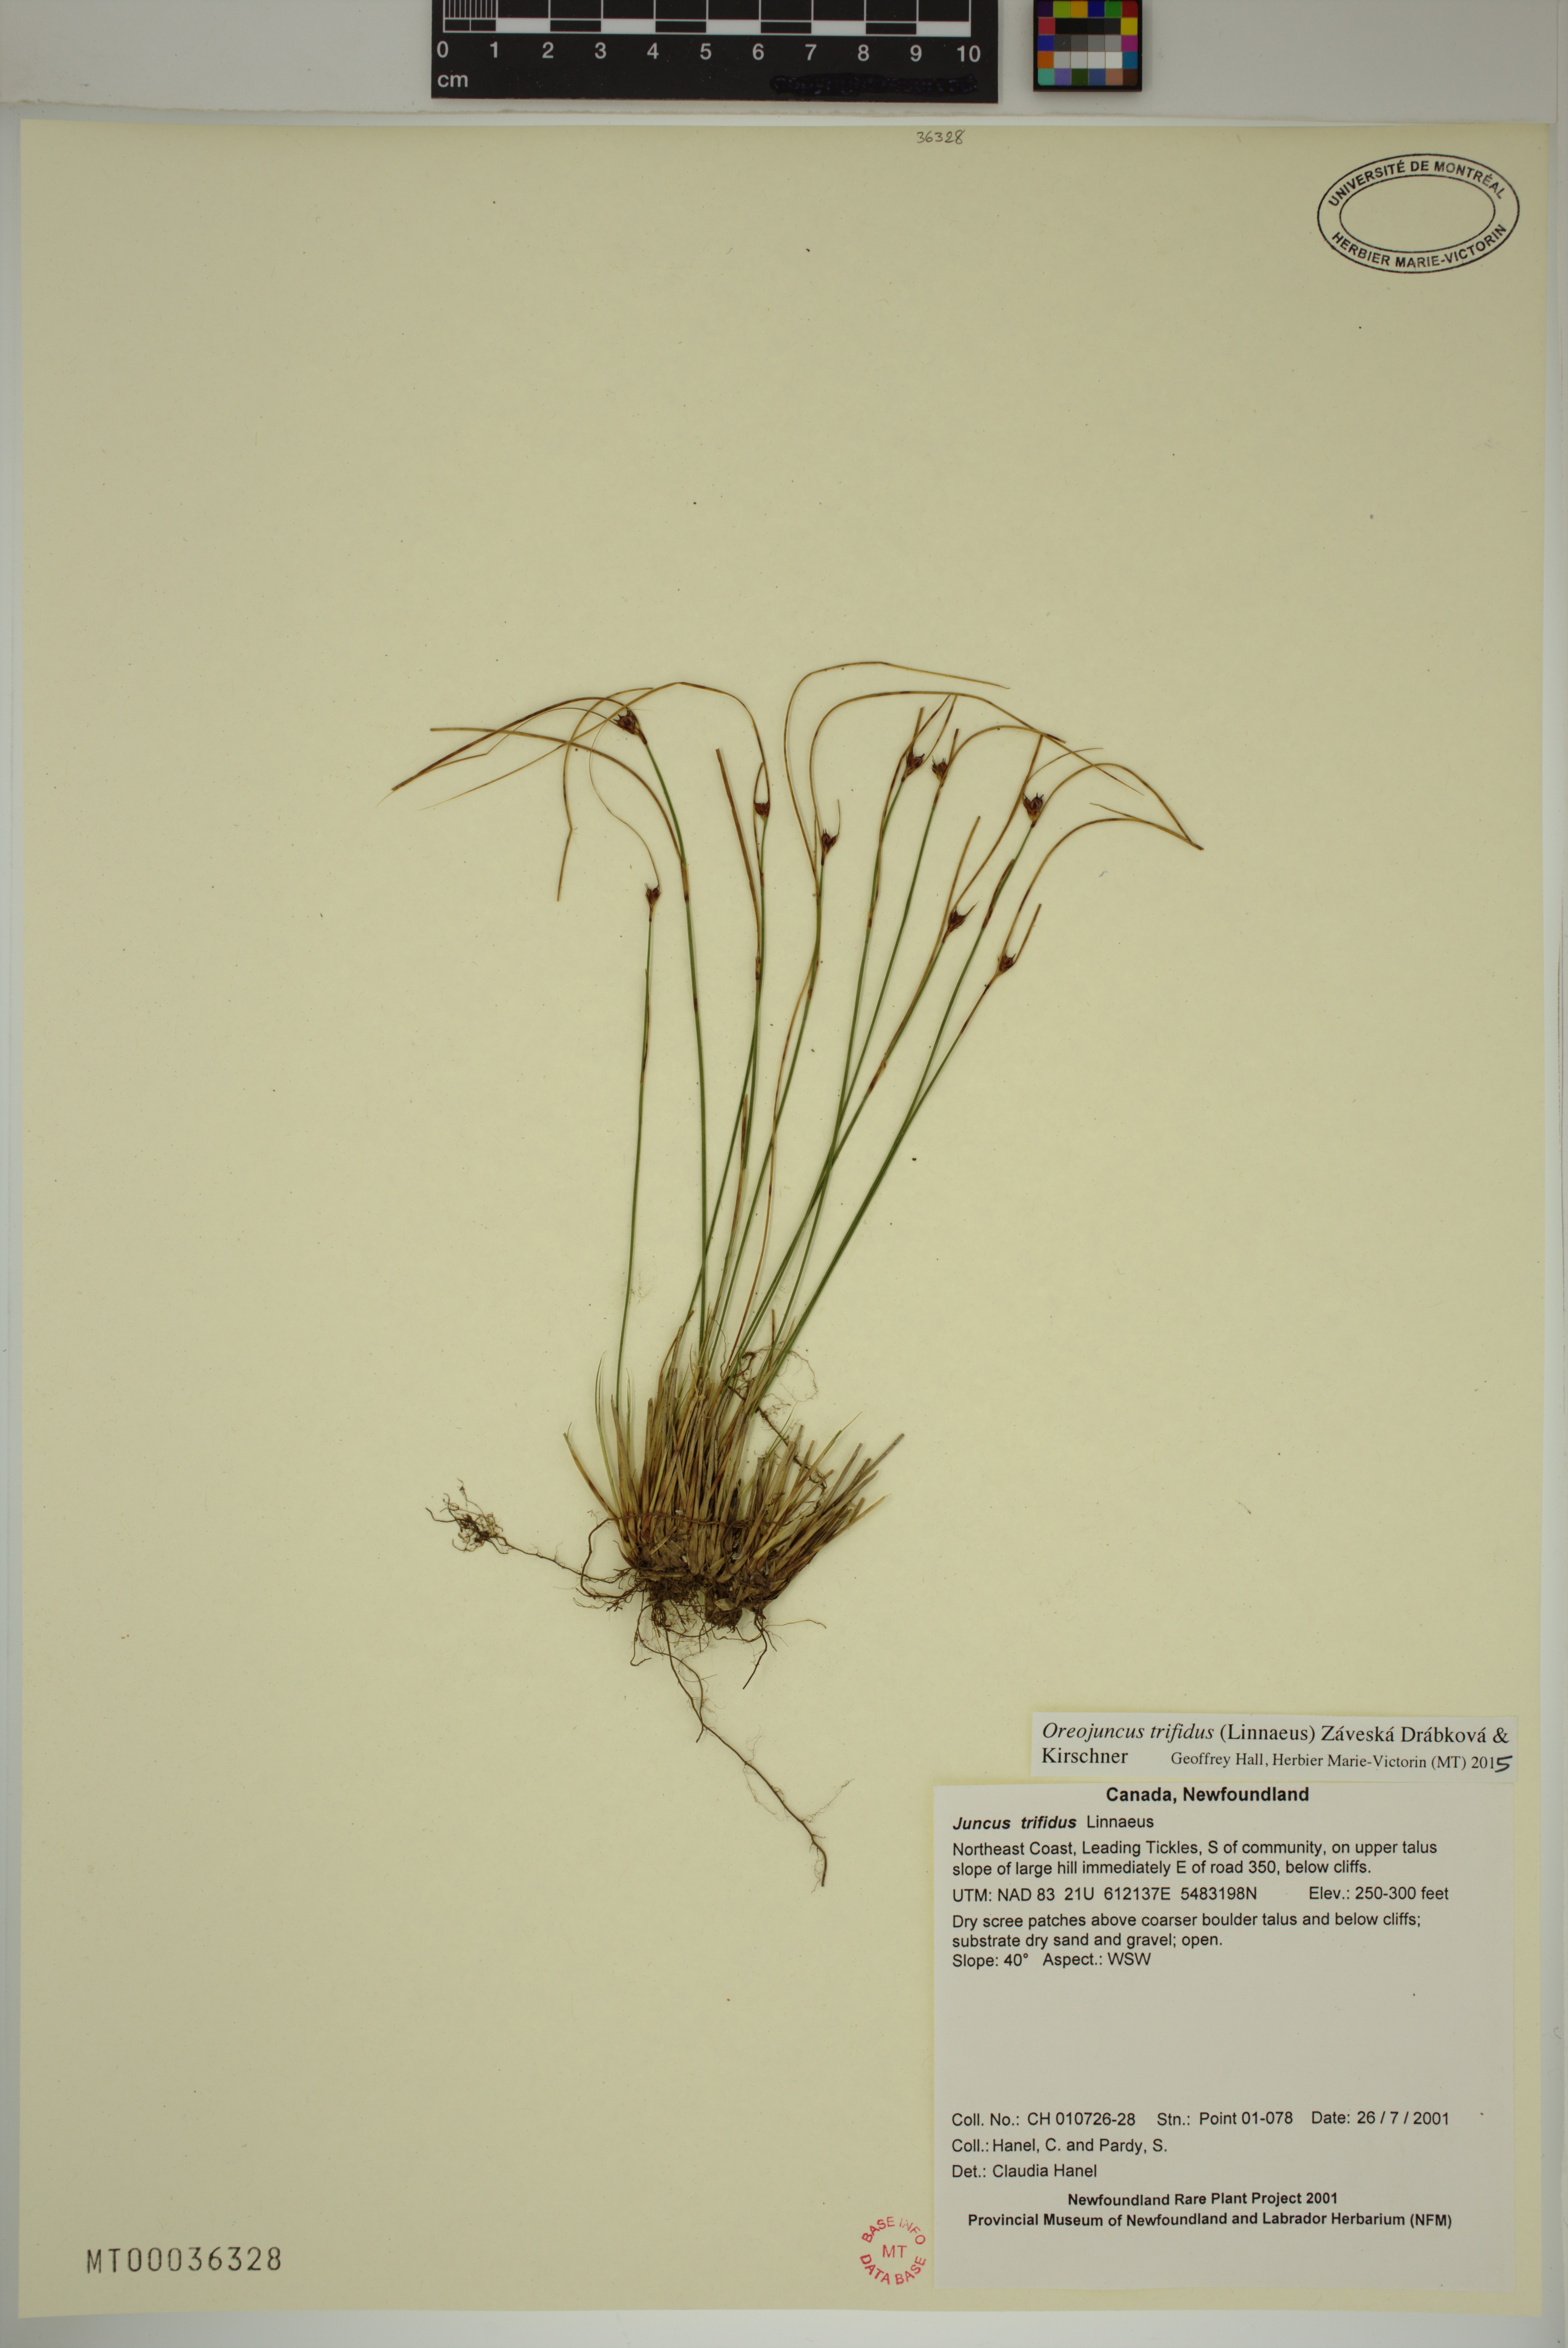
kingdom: Plantae
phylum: Tracheophyta
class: Liliopsida
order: Poales
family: Juncaceae
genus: Oreojuncus
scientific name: Oreojuncus trifidus
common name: Highland rush
